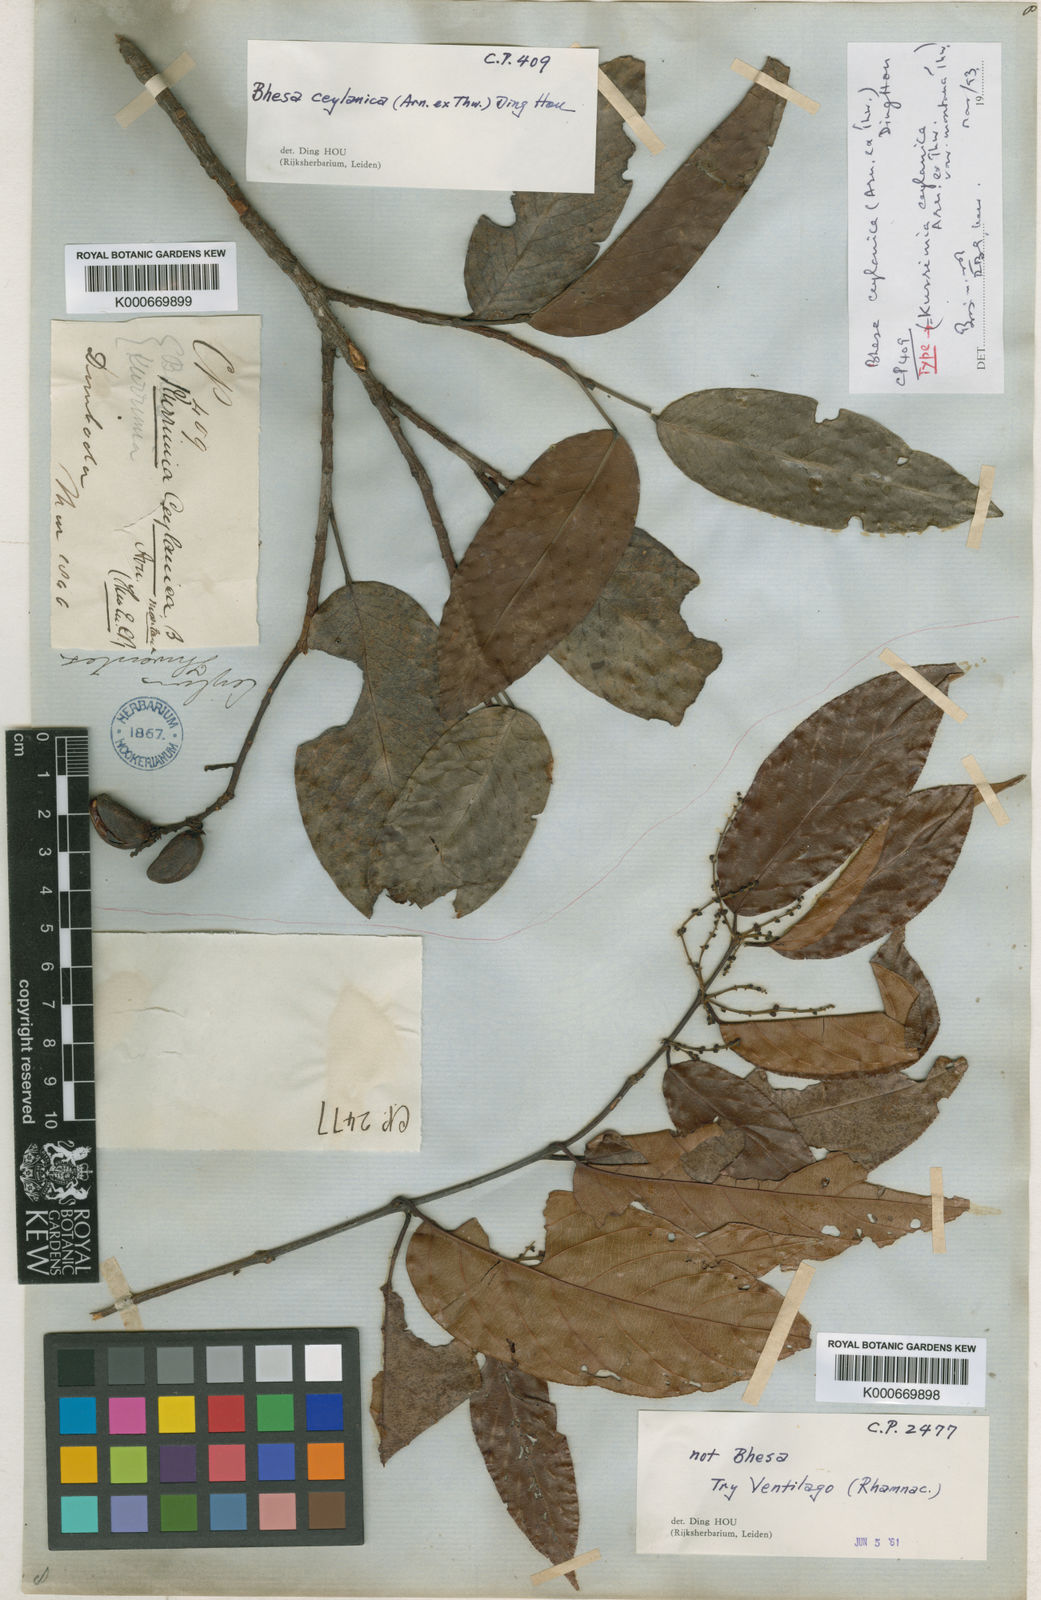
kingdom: Plantae
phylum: Tracheophyta
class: Magnoliopsida
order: Malpighiales
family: Centroplacaceae
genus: Bhesa
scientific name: Bhesa
